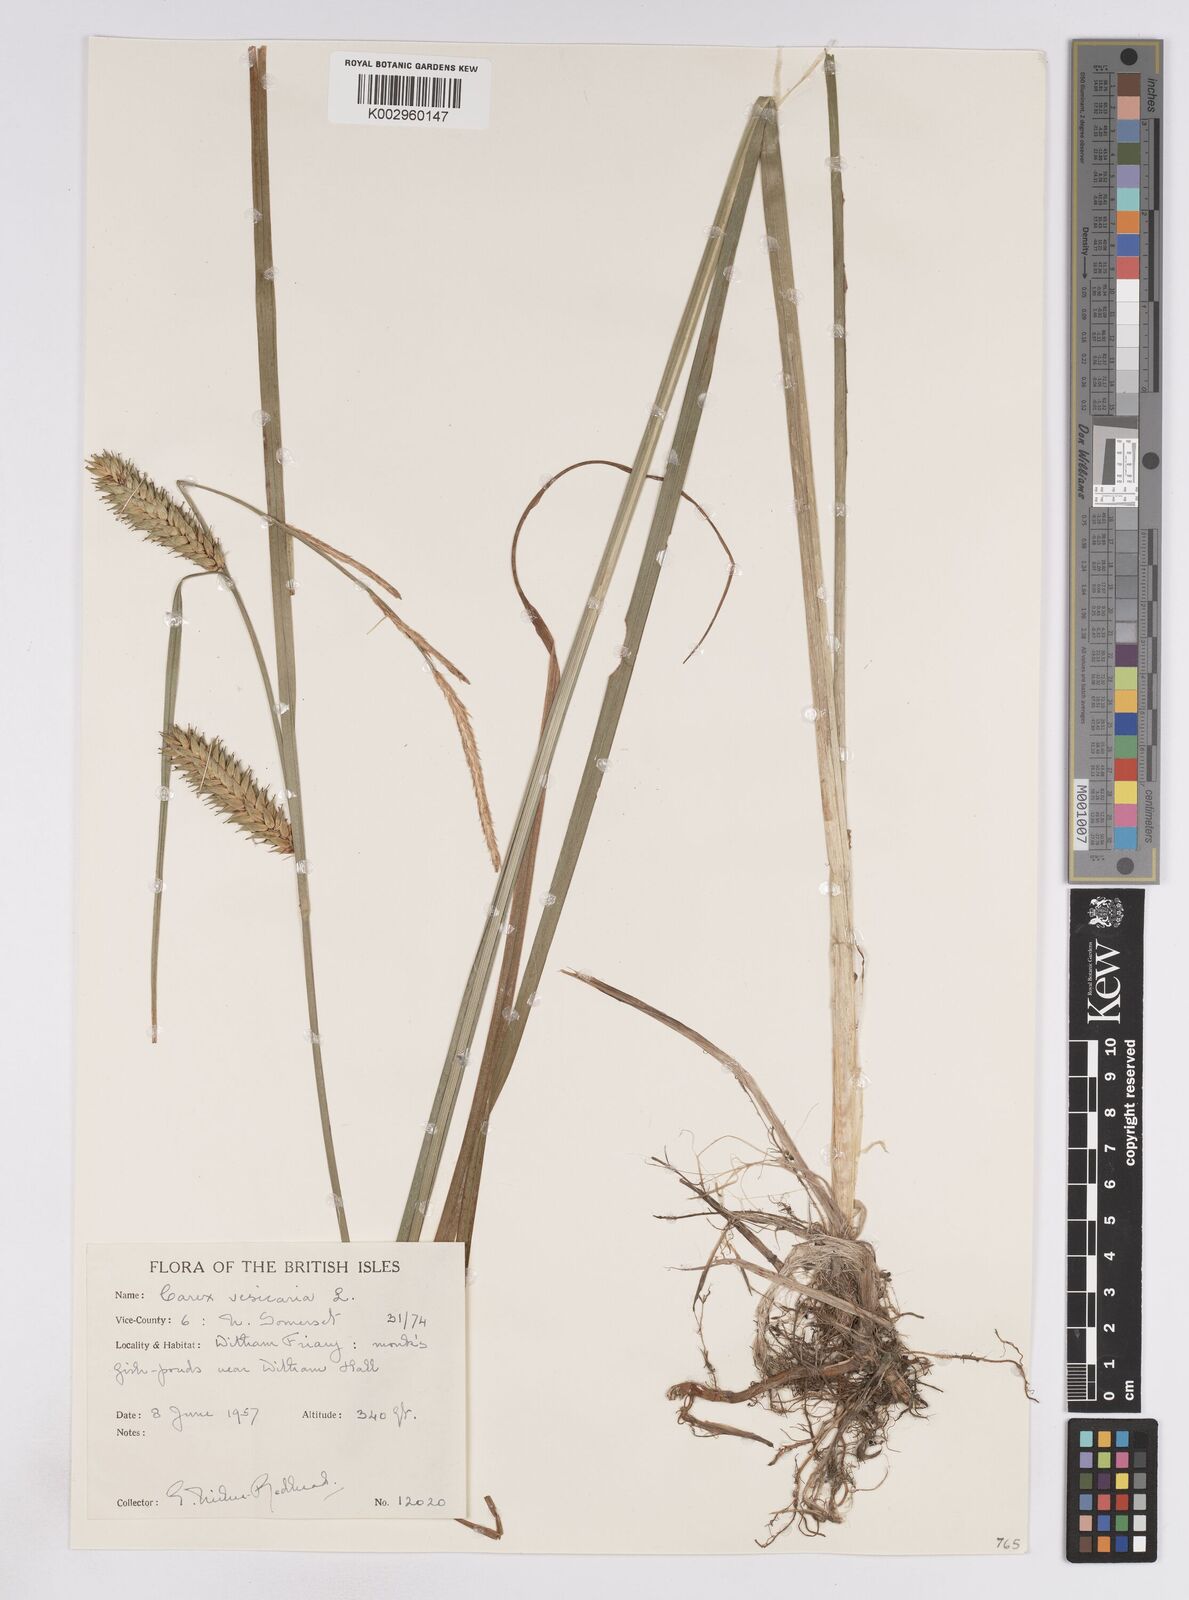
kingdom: Plantae
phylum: Tracheophyta
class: Liliopsida
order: Poales
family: Cyperaceae
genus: Carex
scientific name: Carex vesicaria
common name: Bladder-sedge
